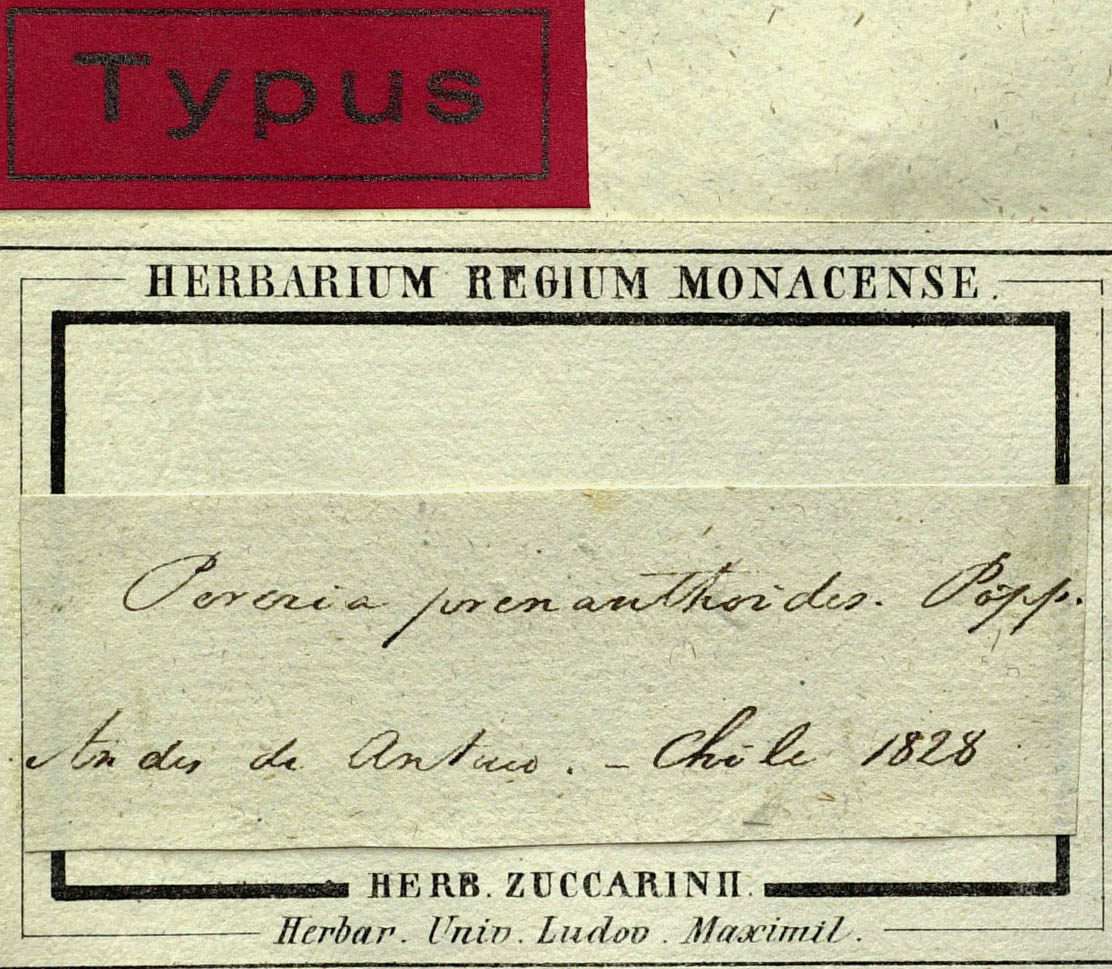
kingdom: Plantae
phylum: Tracheophyta
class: Magnoliopsida
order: Asterales
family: Asteraceae
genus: Perezia
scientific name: Perezia prenanthoides
